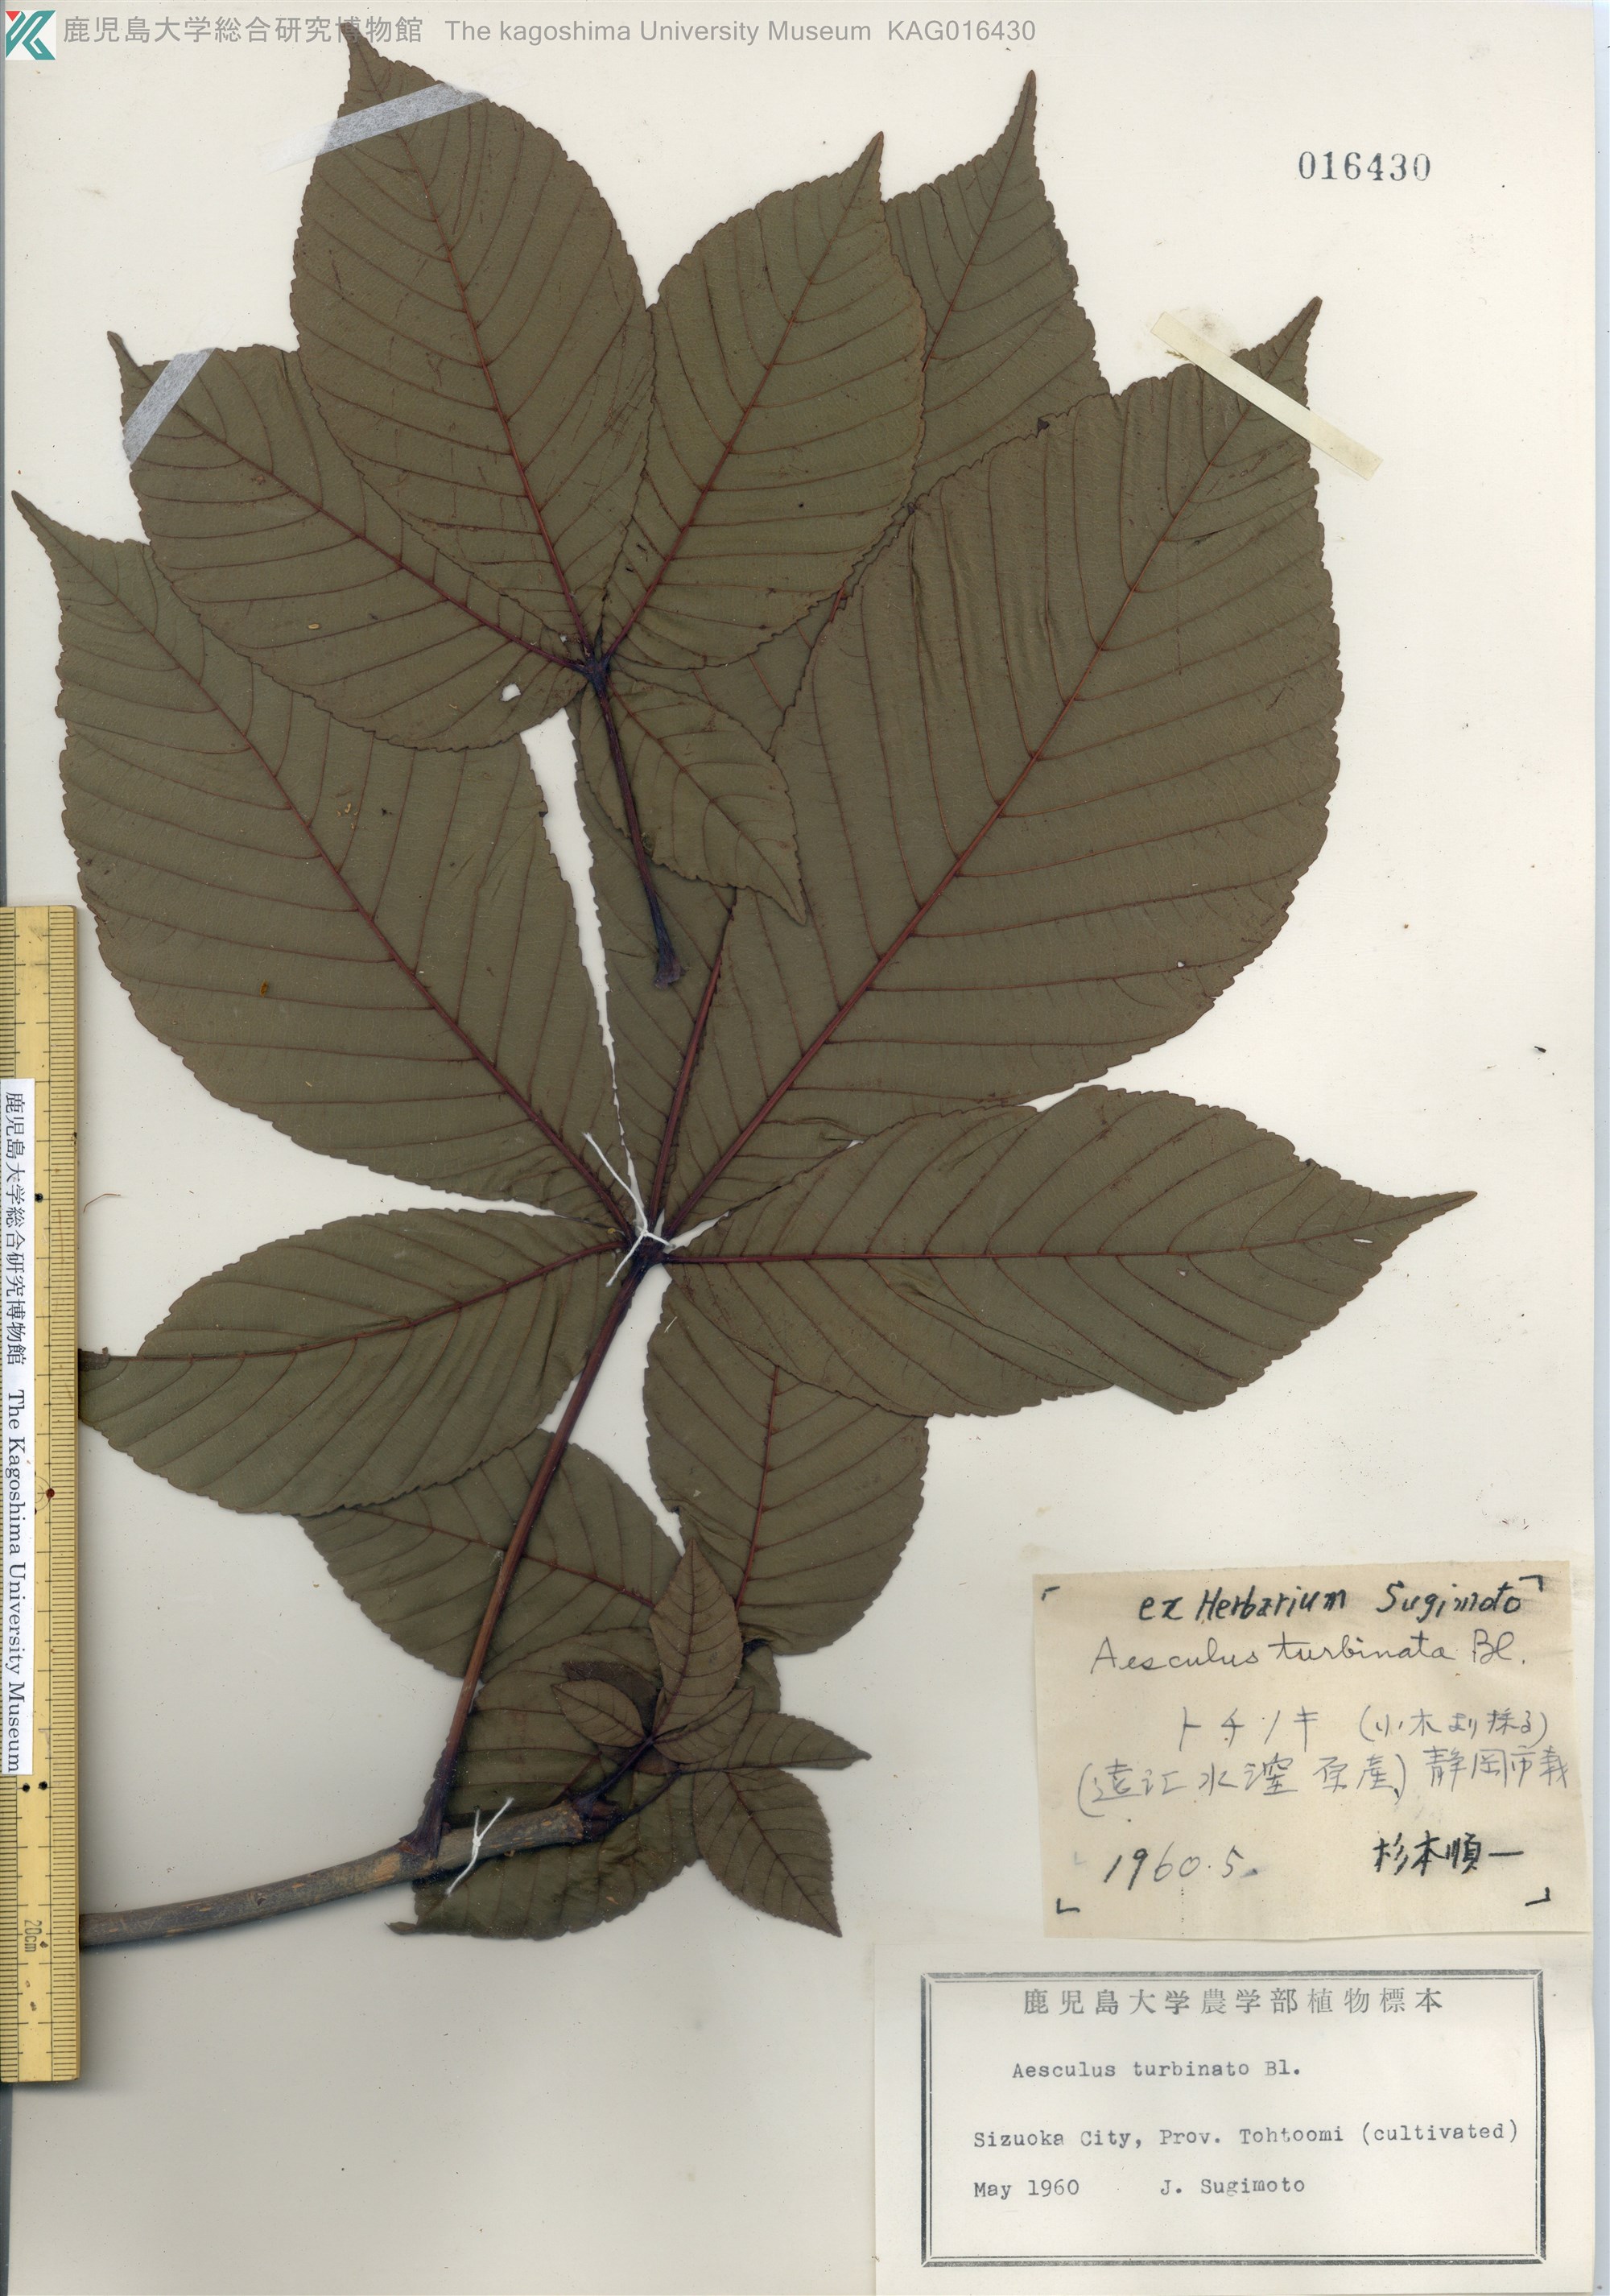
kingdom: Plantae
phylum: Tracheophyta
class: Magnoliopsida
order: Sapindales
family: Sapindaceae
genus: Aesculus
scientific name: Aesculus turbinata
